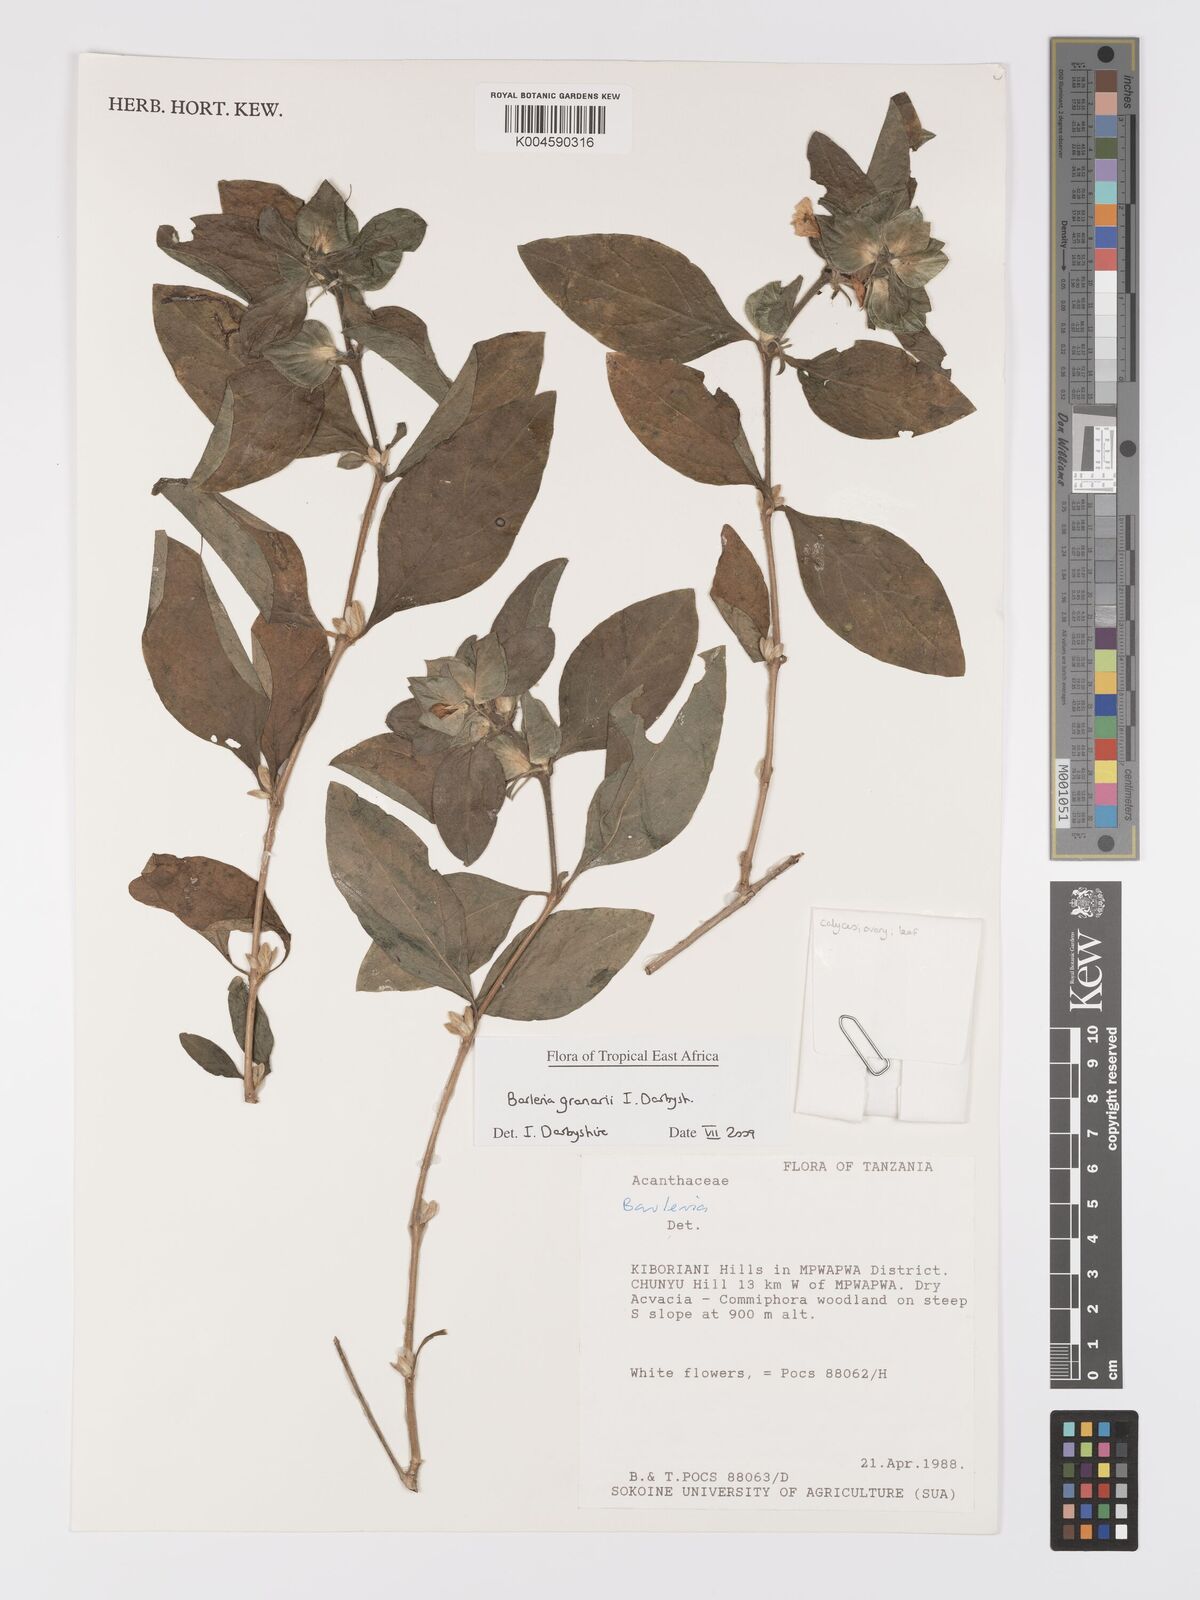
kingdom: Plantae
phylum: Tracheophyta
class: Magnoliopsida
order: Lamiales
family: Acanthaceae
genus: Barleria
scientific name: Barleria granarii
